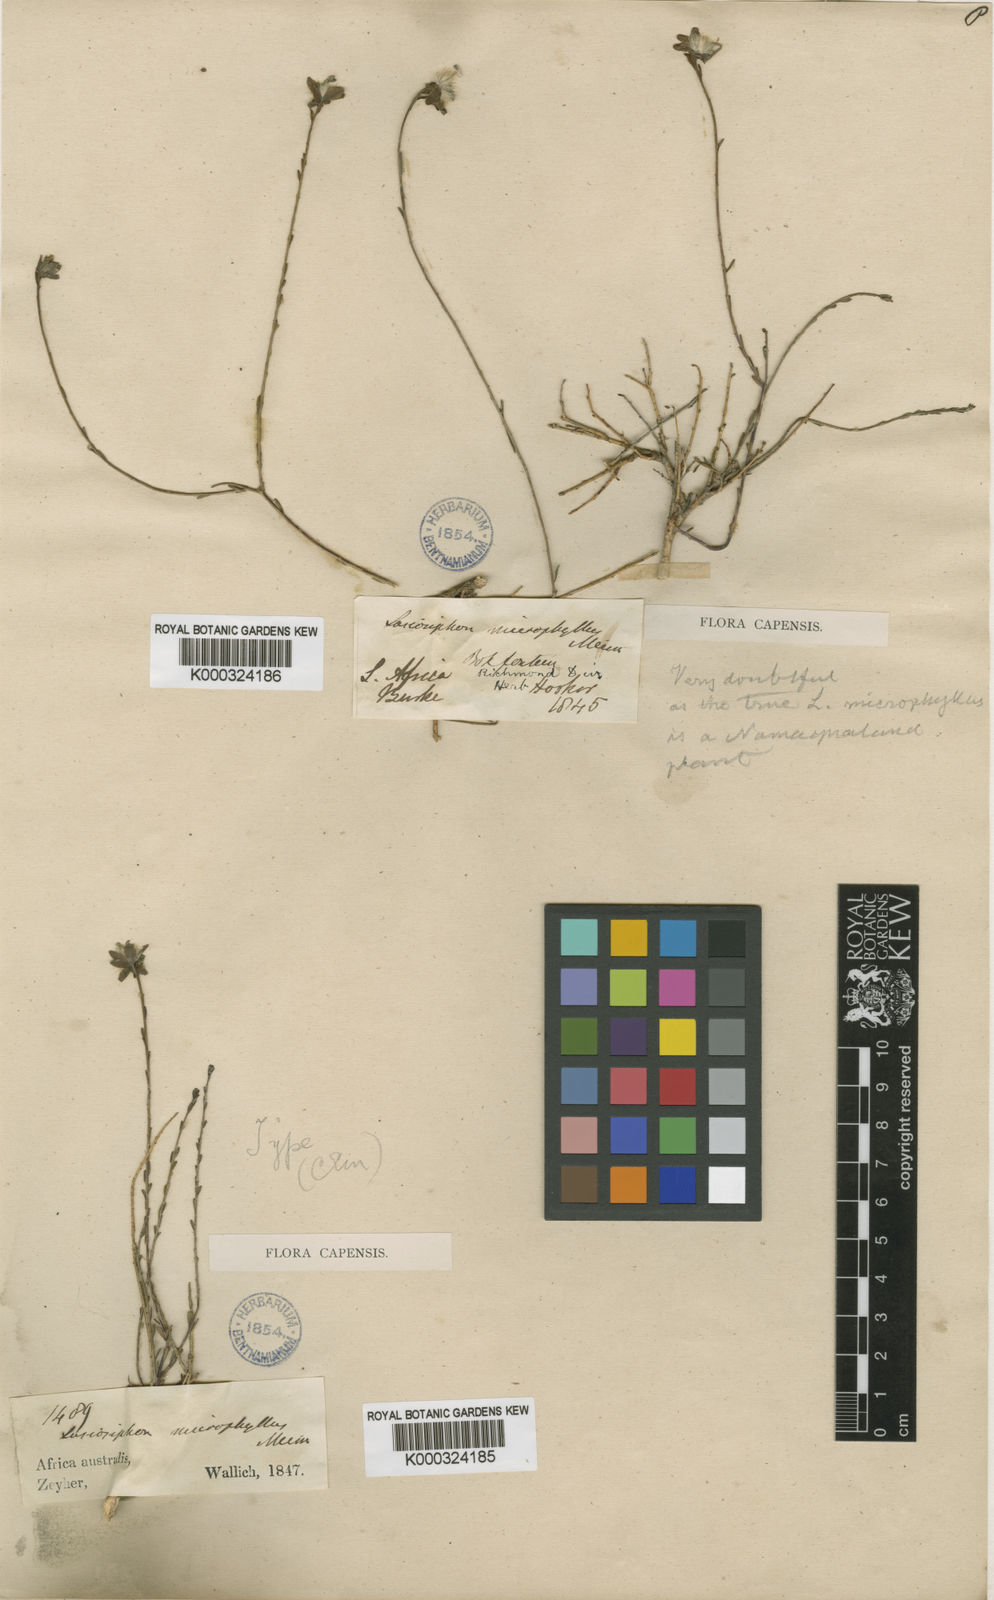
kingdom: Plantae
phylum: Tracheophyta
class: Magnoliopsida
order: Malvales
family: Thymelaeaceae
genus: Gnidia
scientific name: Gnidia microphylla
